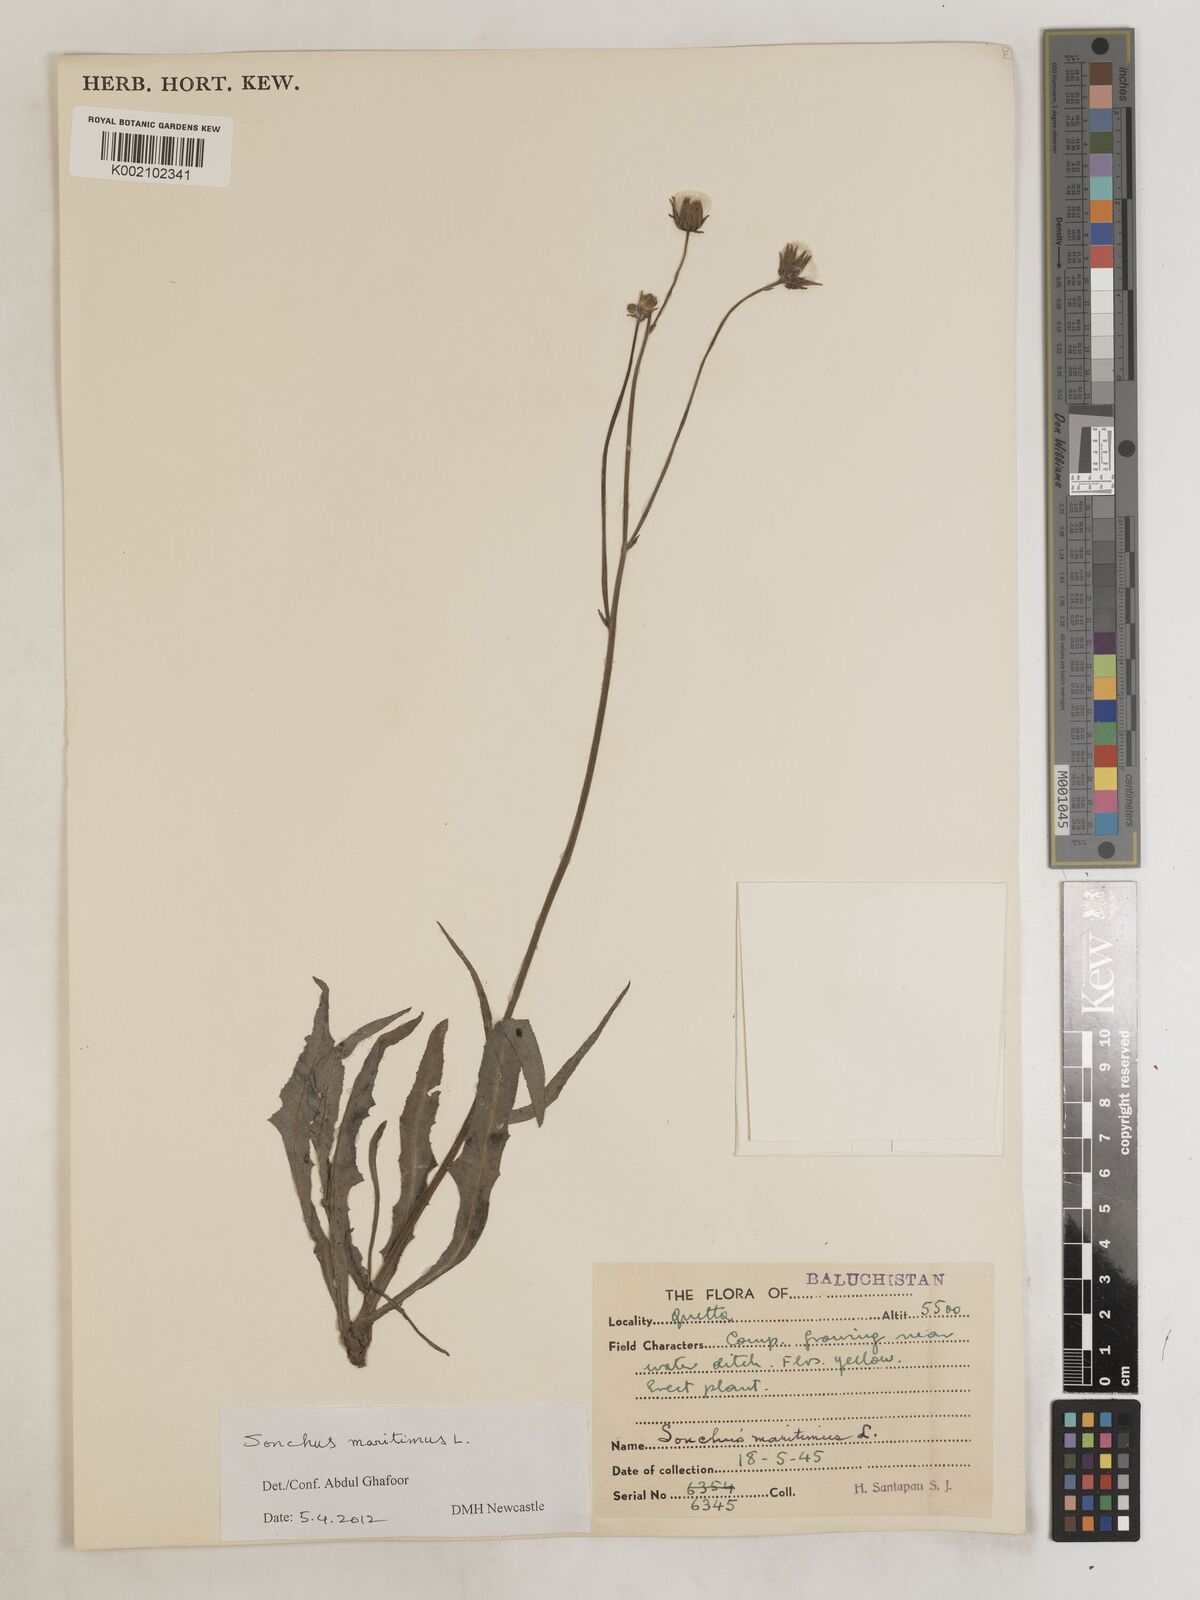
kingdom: Plantae
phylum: Tracheophyta
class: Magnoliopsida
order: Asterales
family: Asteraceae
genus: Sonchus
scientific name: Sonchus maritimus
